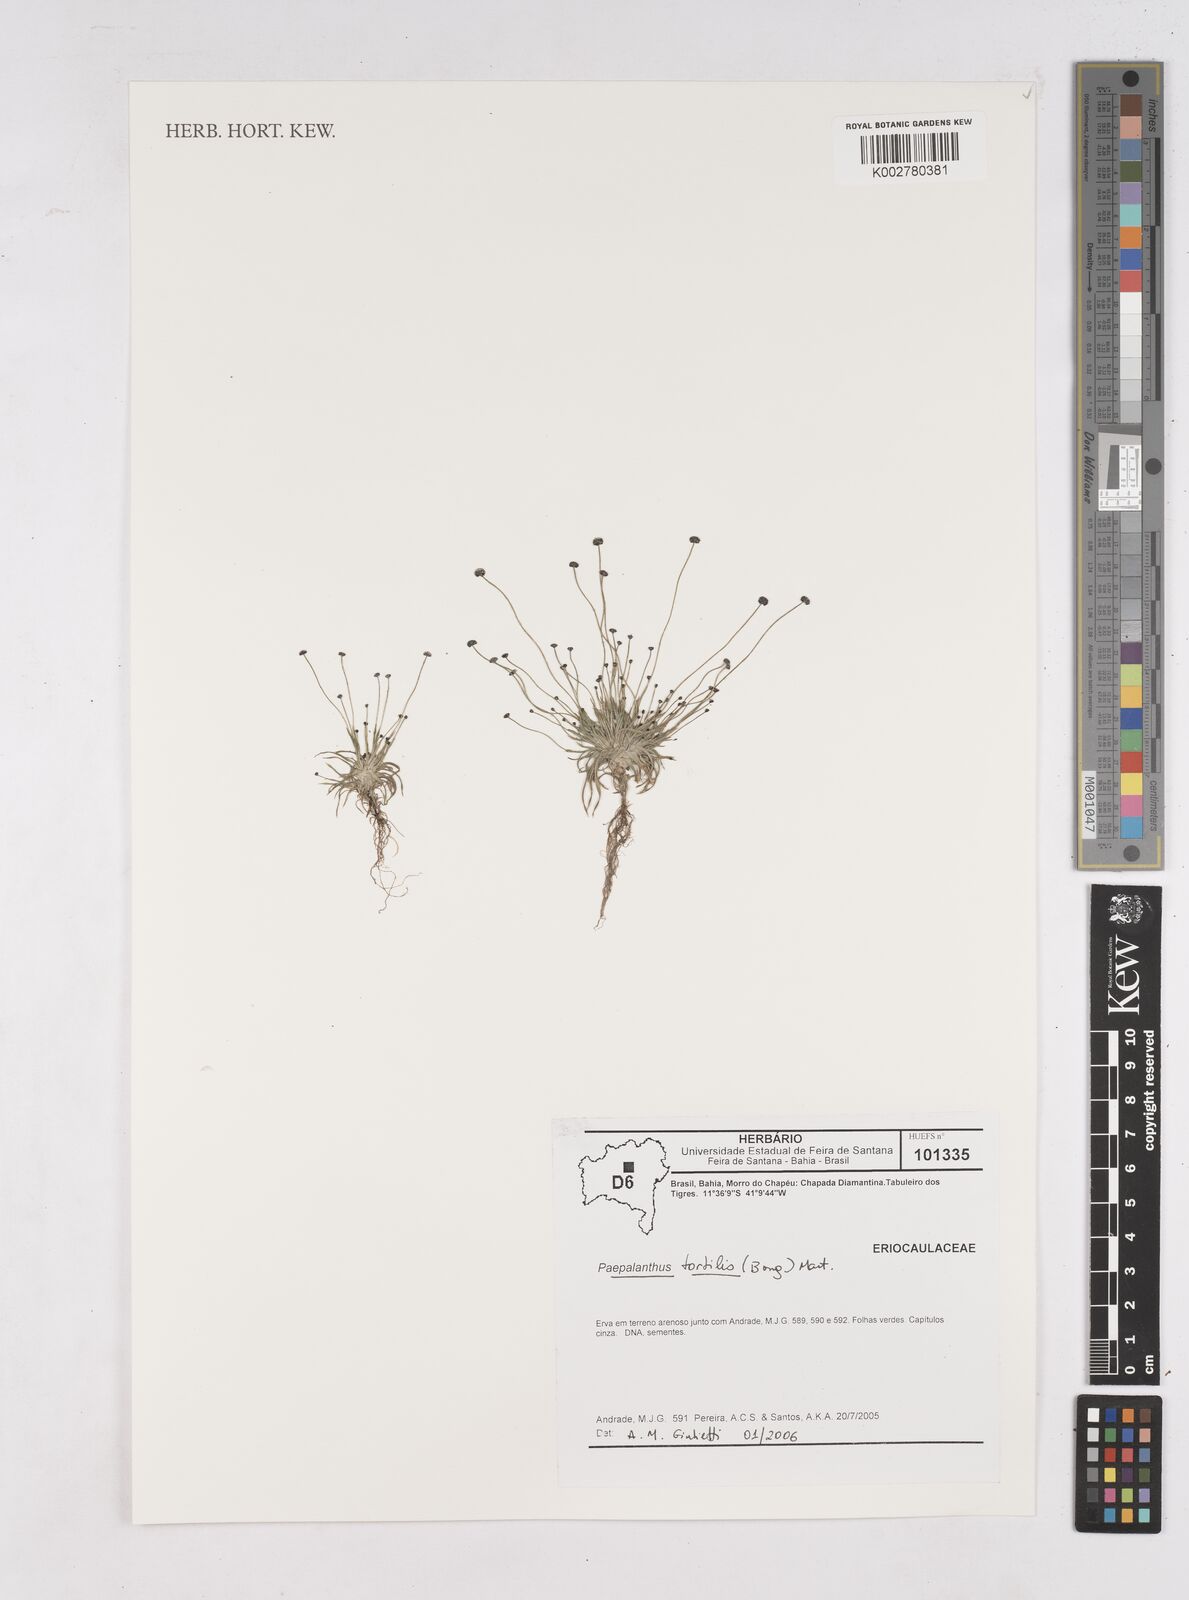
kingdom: Plantae
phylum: Tracheophyta
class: Liliopsida
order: Poales
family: Eriocaulaceae
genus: Paepalanthus
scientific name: Paepalanthus tortilis
